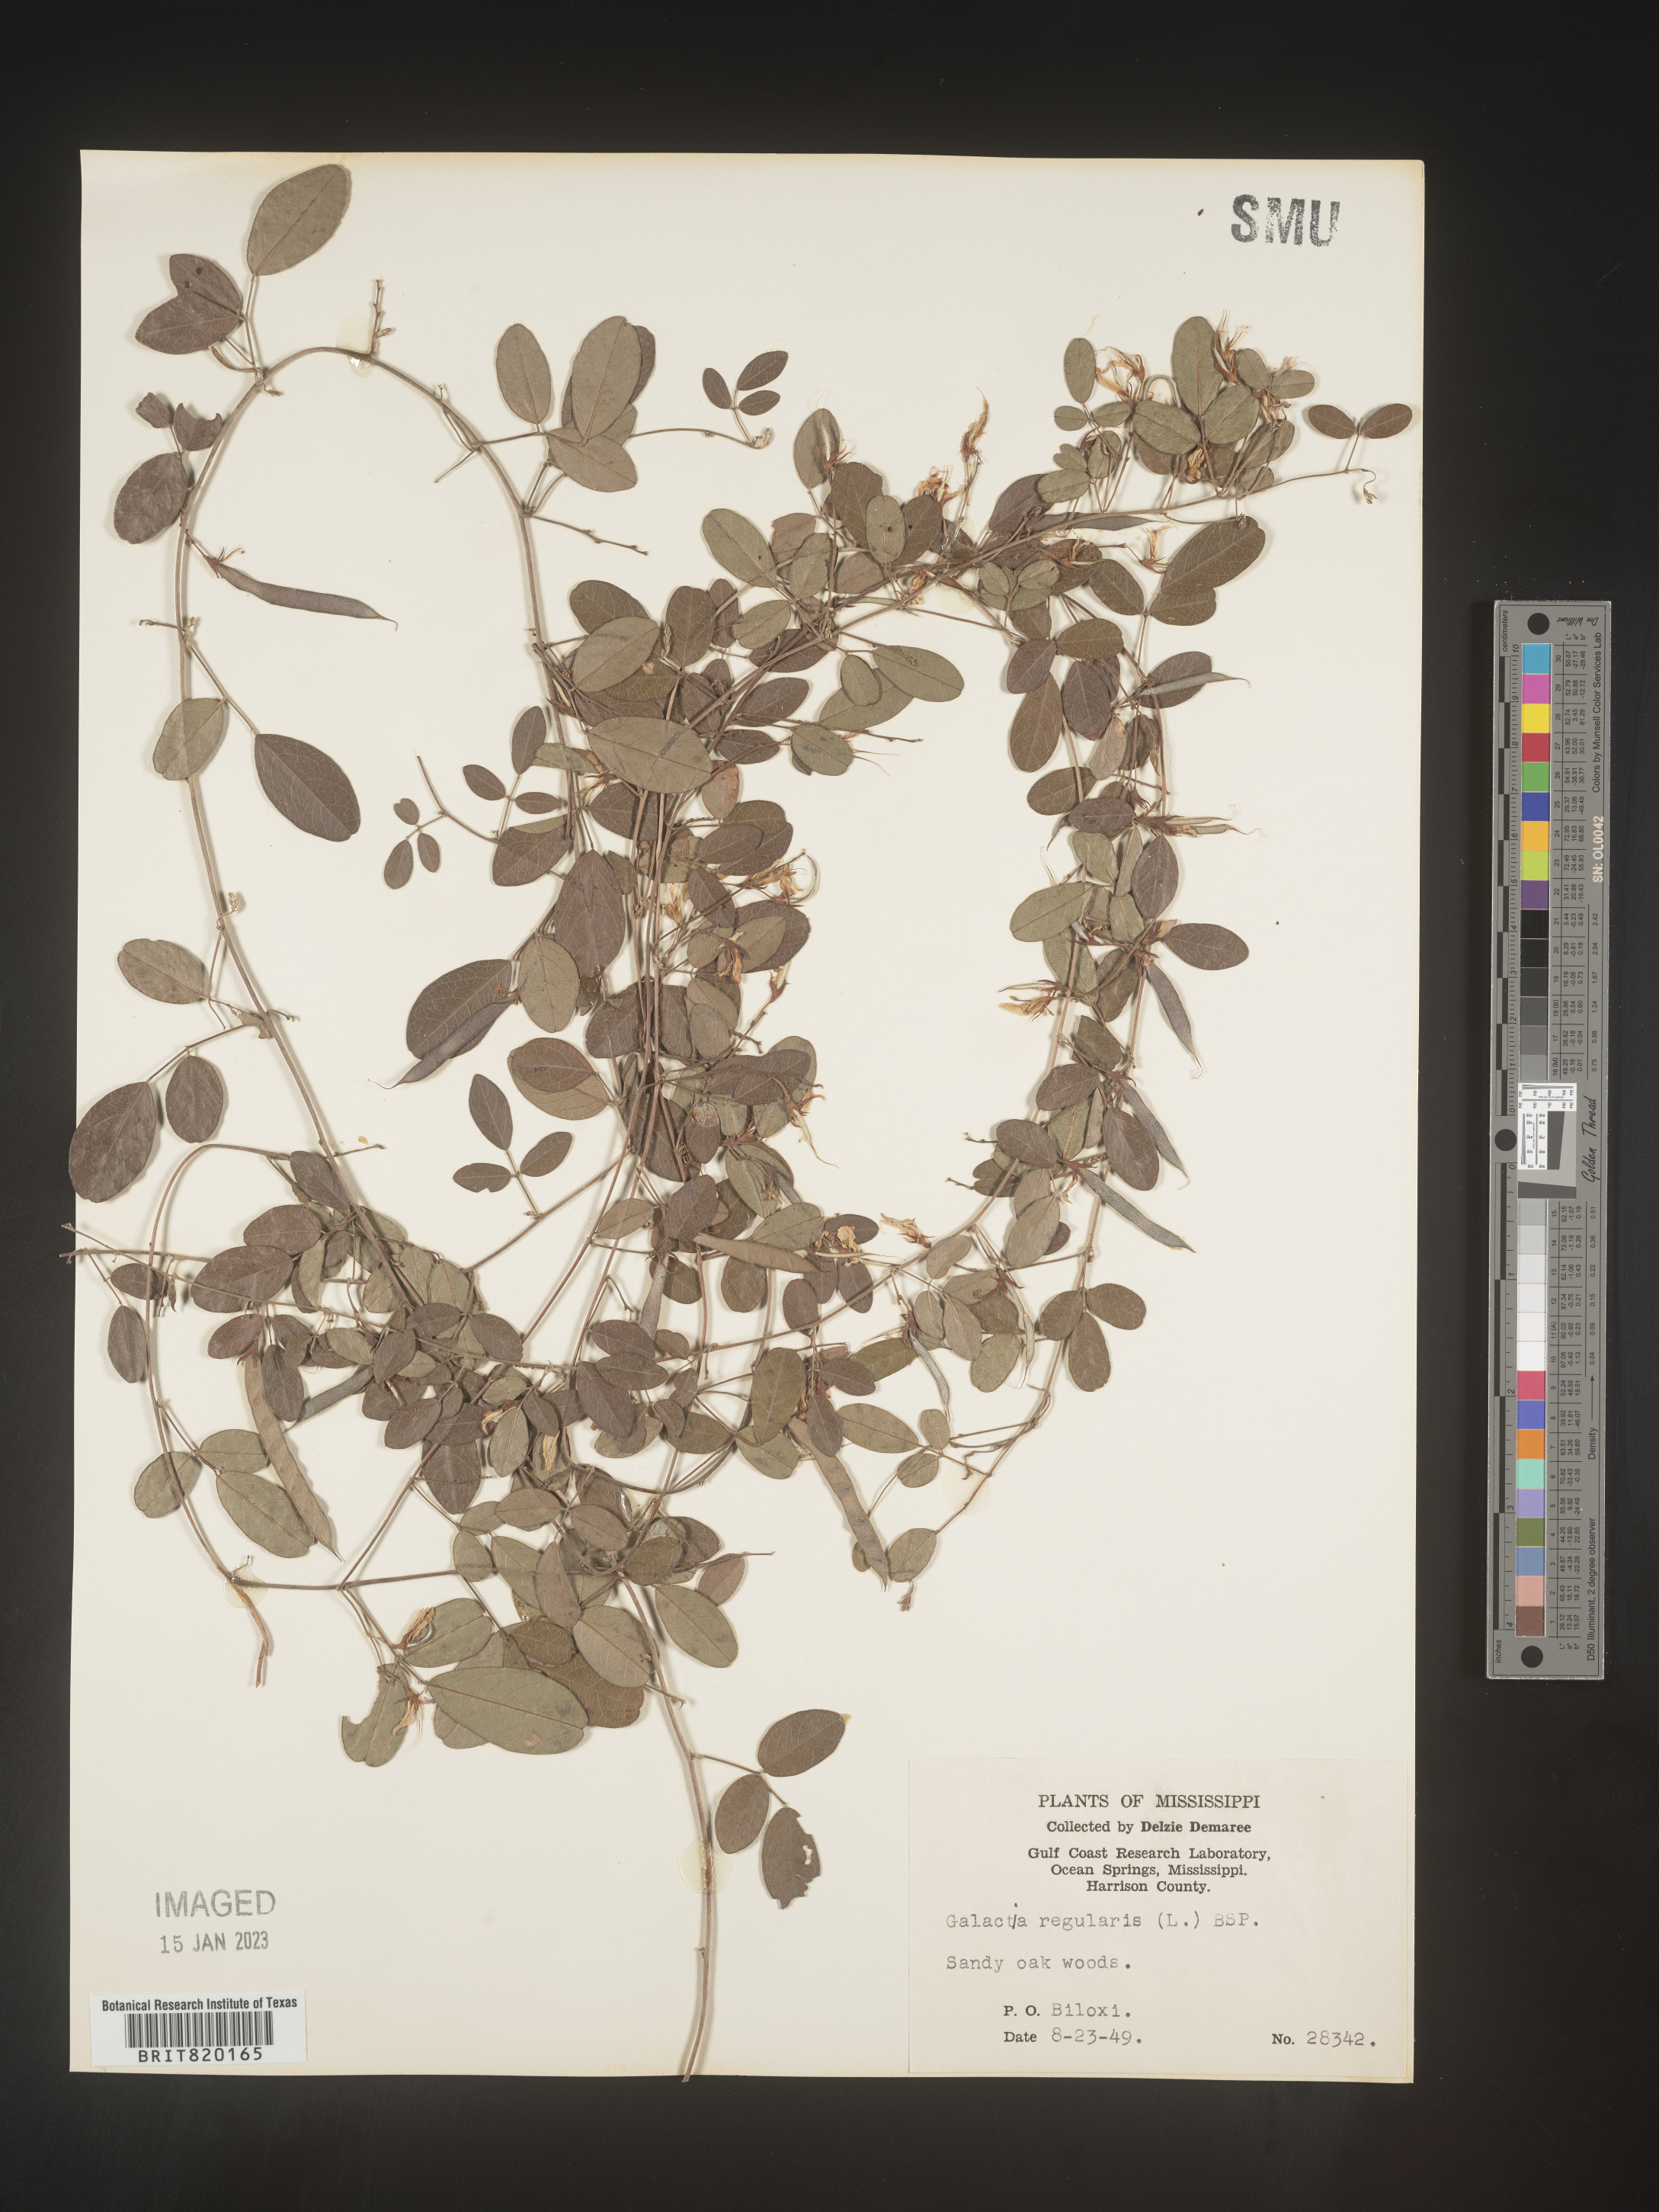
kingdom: Plantae
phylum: Tracheophyta
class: Magnoliopsida
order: Fabales
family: Fabaceae
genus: Galactia
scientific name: Galactia volubilis
